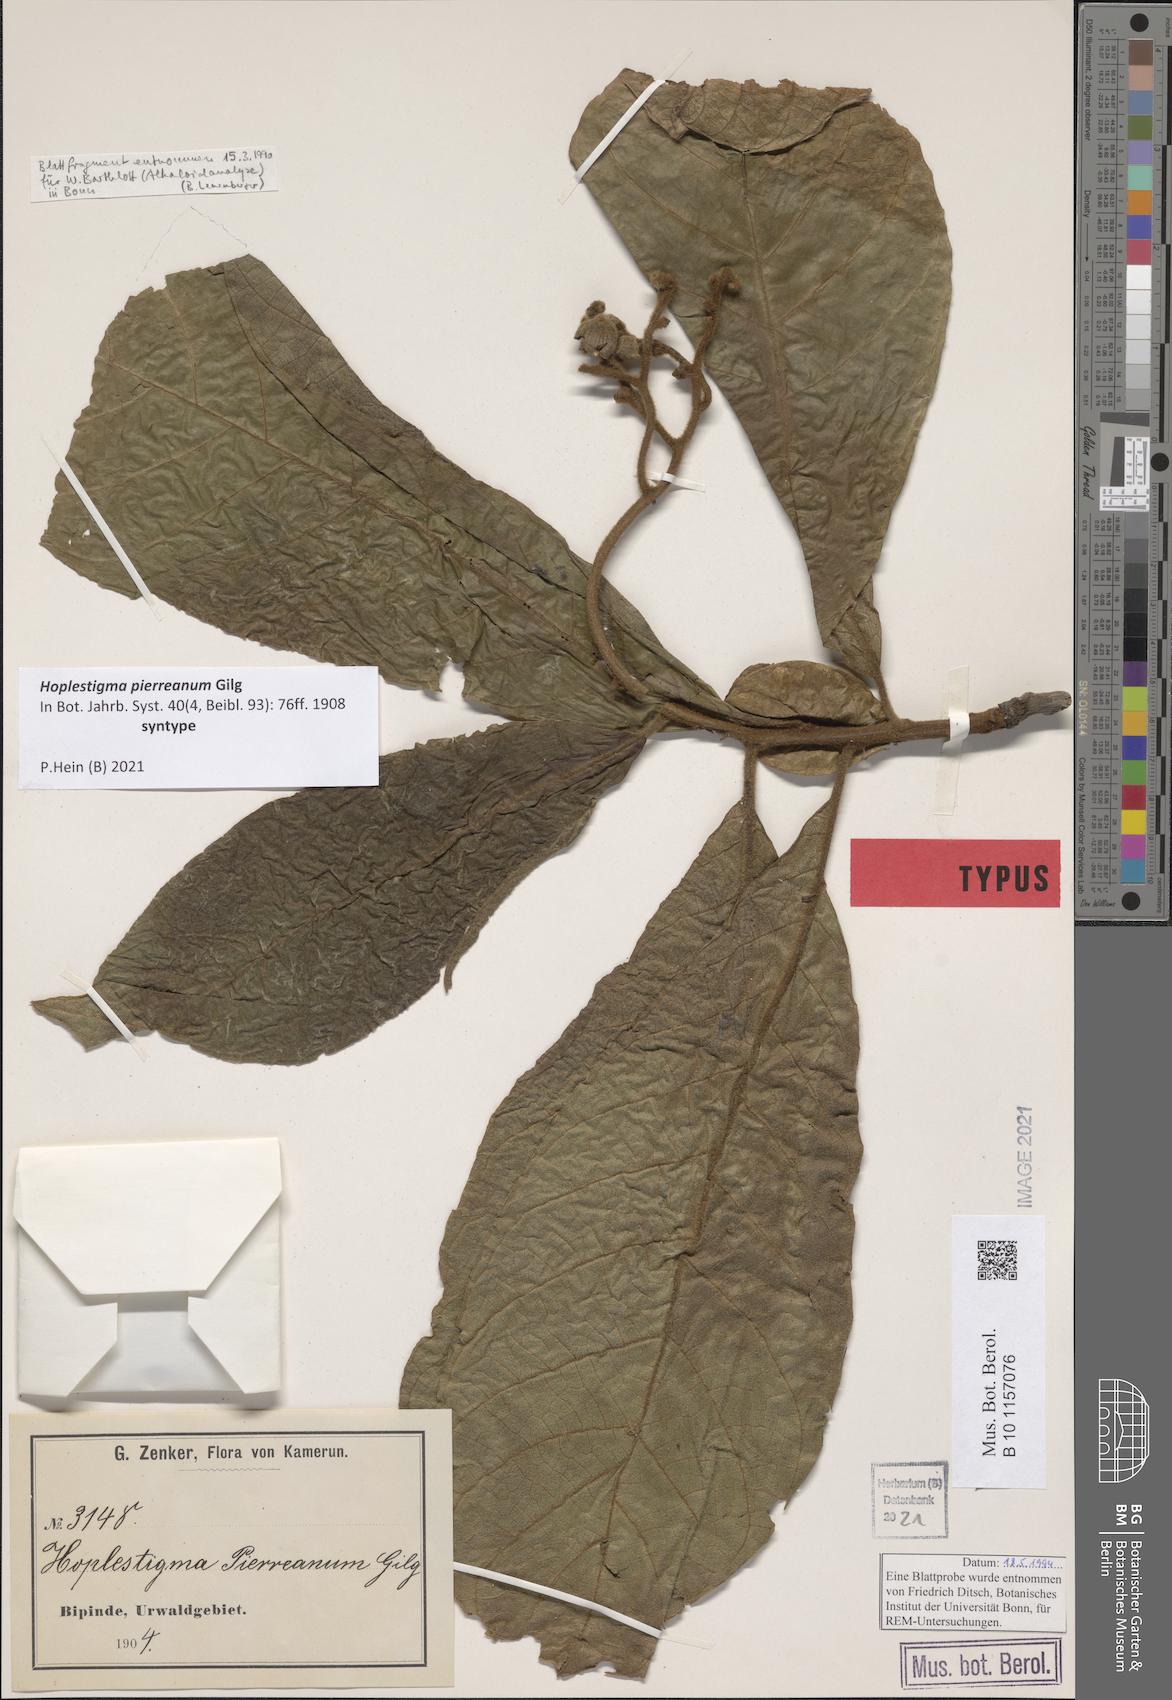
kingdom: Plantae
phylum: Tracheophyta
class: Magnoliopsida
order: Boraginales
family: Hoplestigmataceae
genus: Hoplestigma
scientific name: Hoplestigma pierreanum
